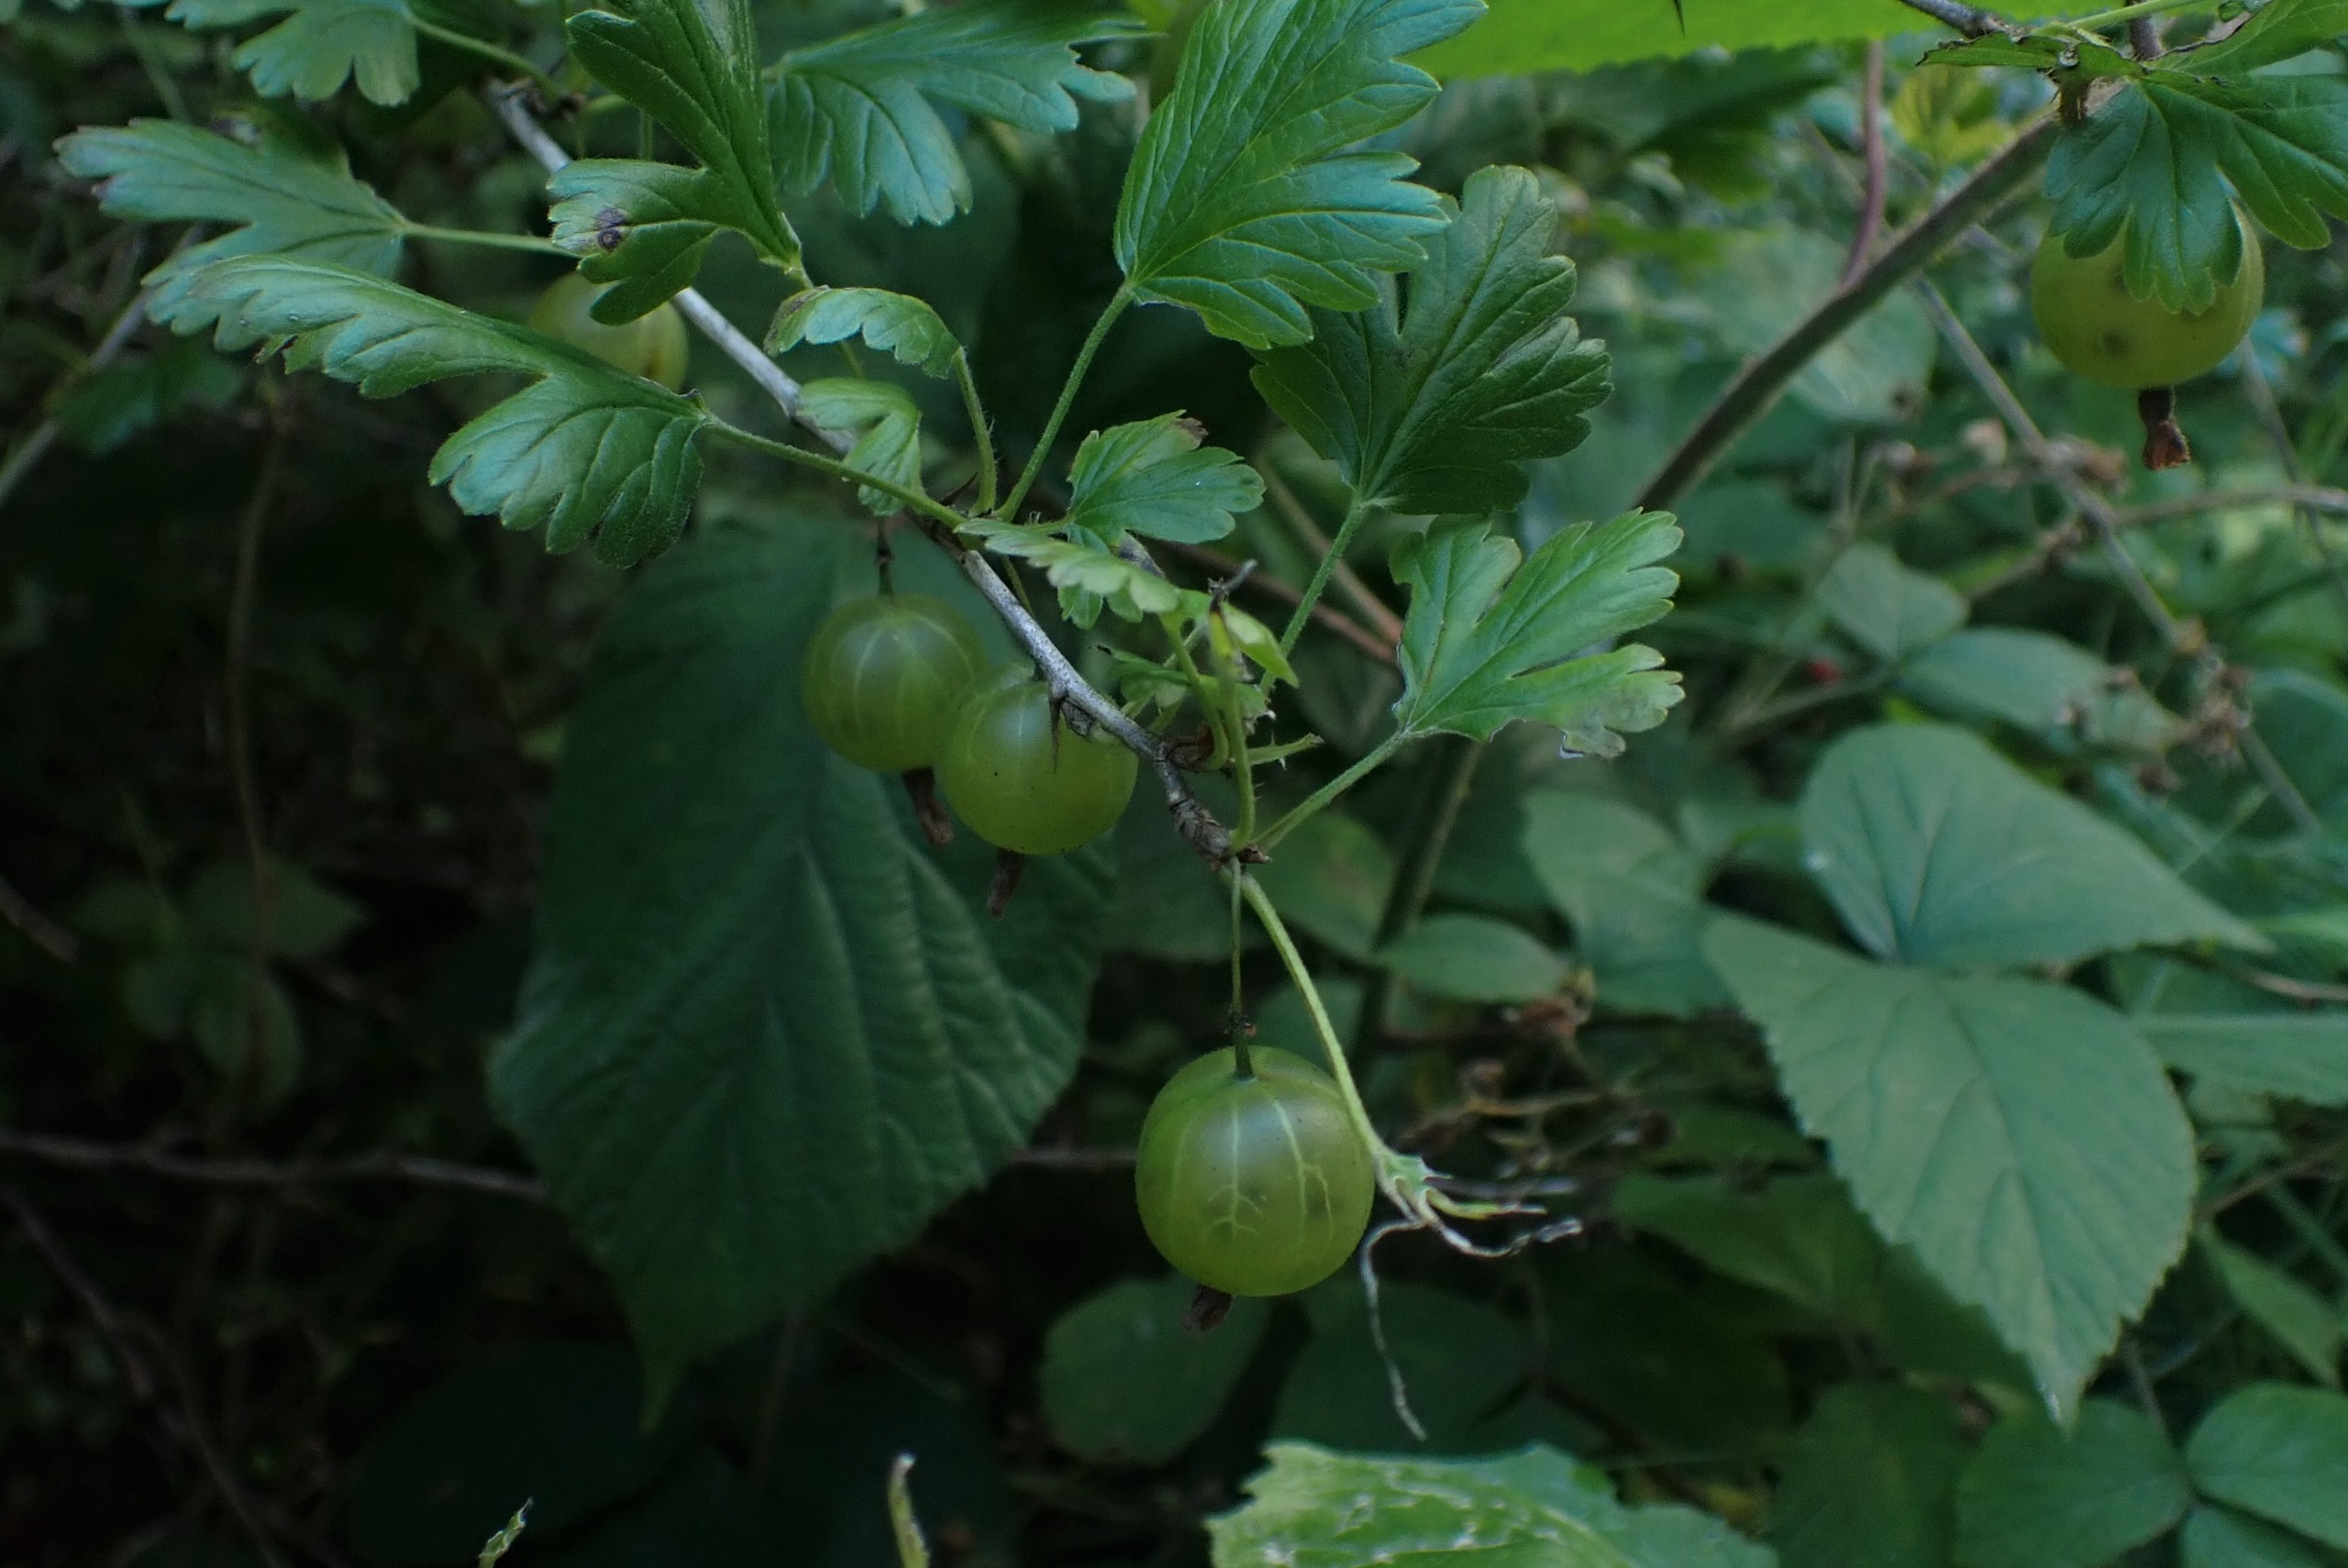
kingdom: Plantae
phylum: Tracheophyta
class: Magnoliopsida
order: Saxifragales
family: Grossulariaceae
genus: Ribes
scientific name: Ribes uva-crispa
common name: Stikkelsbær
